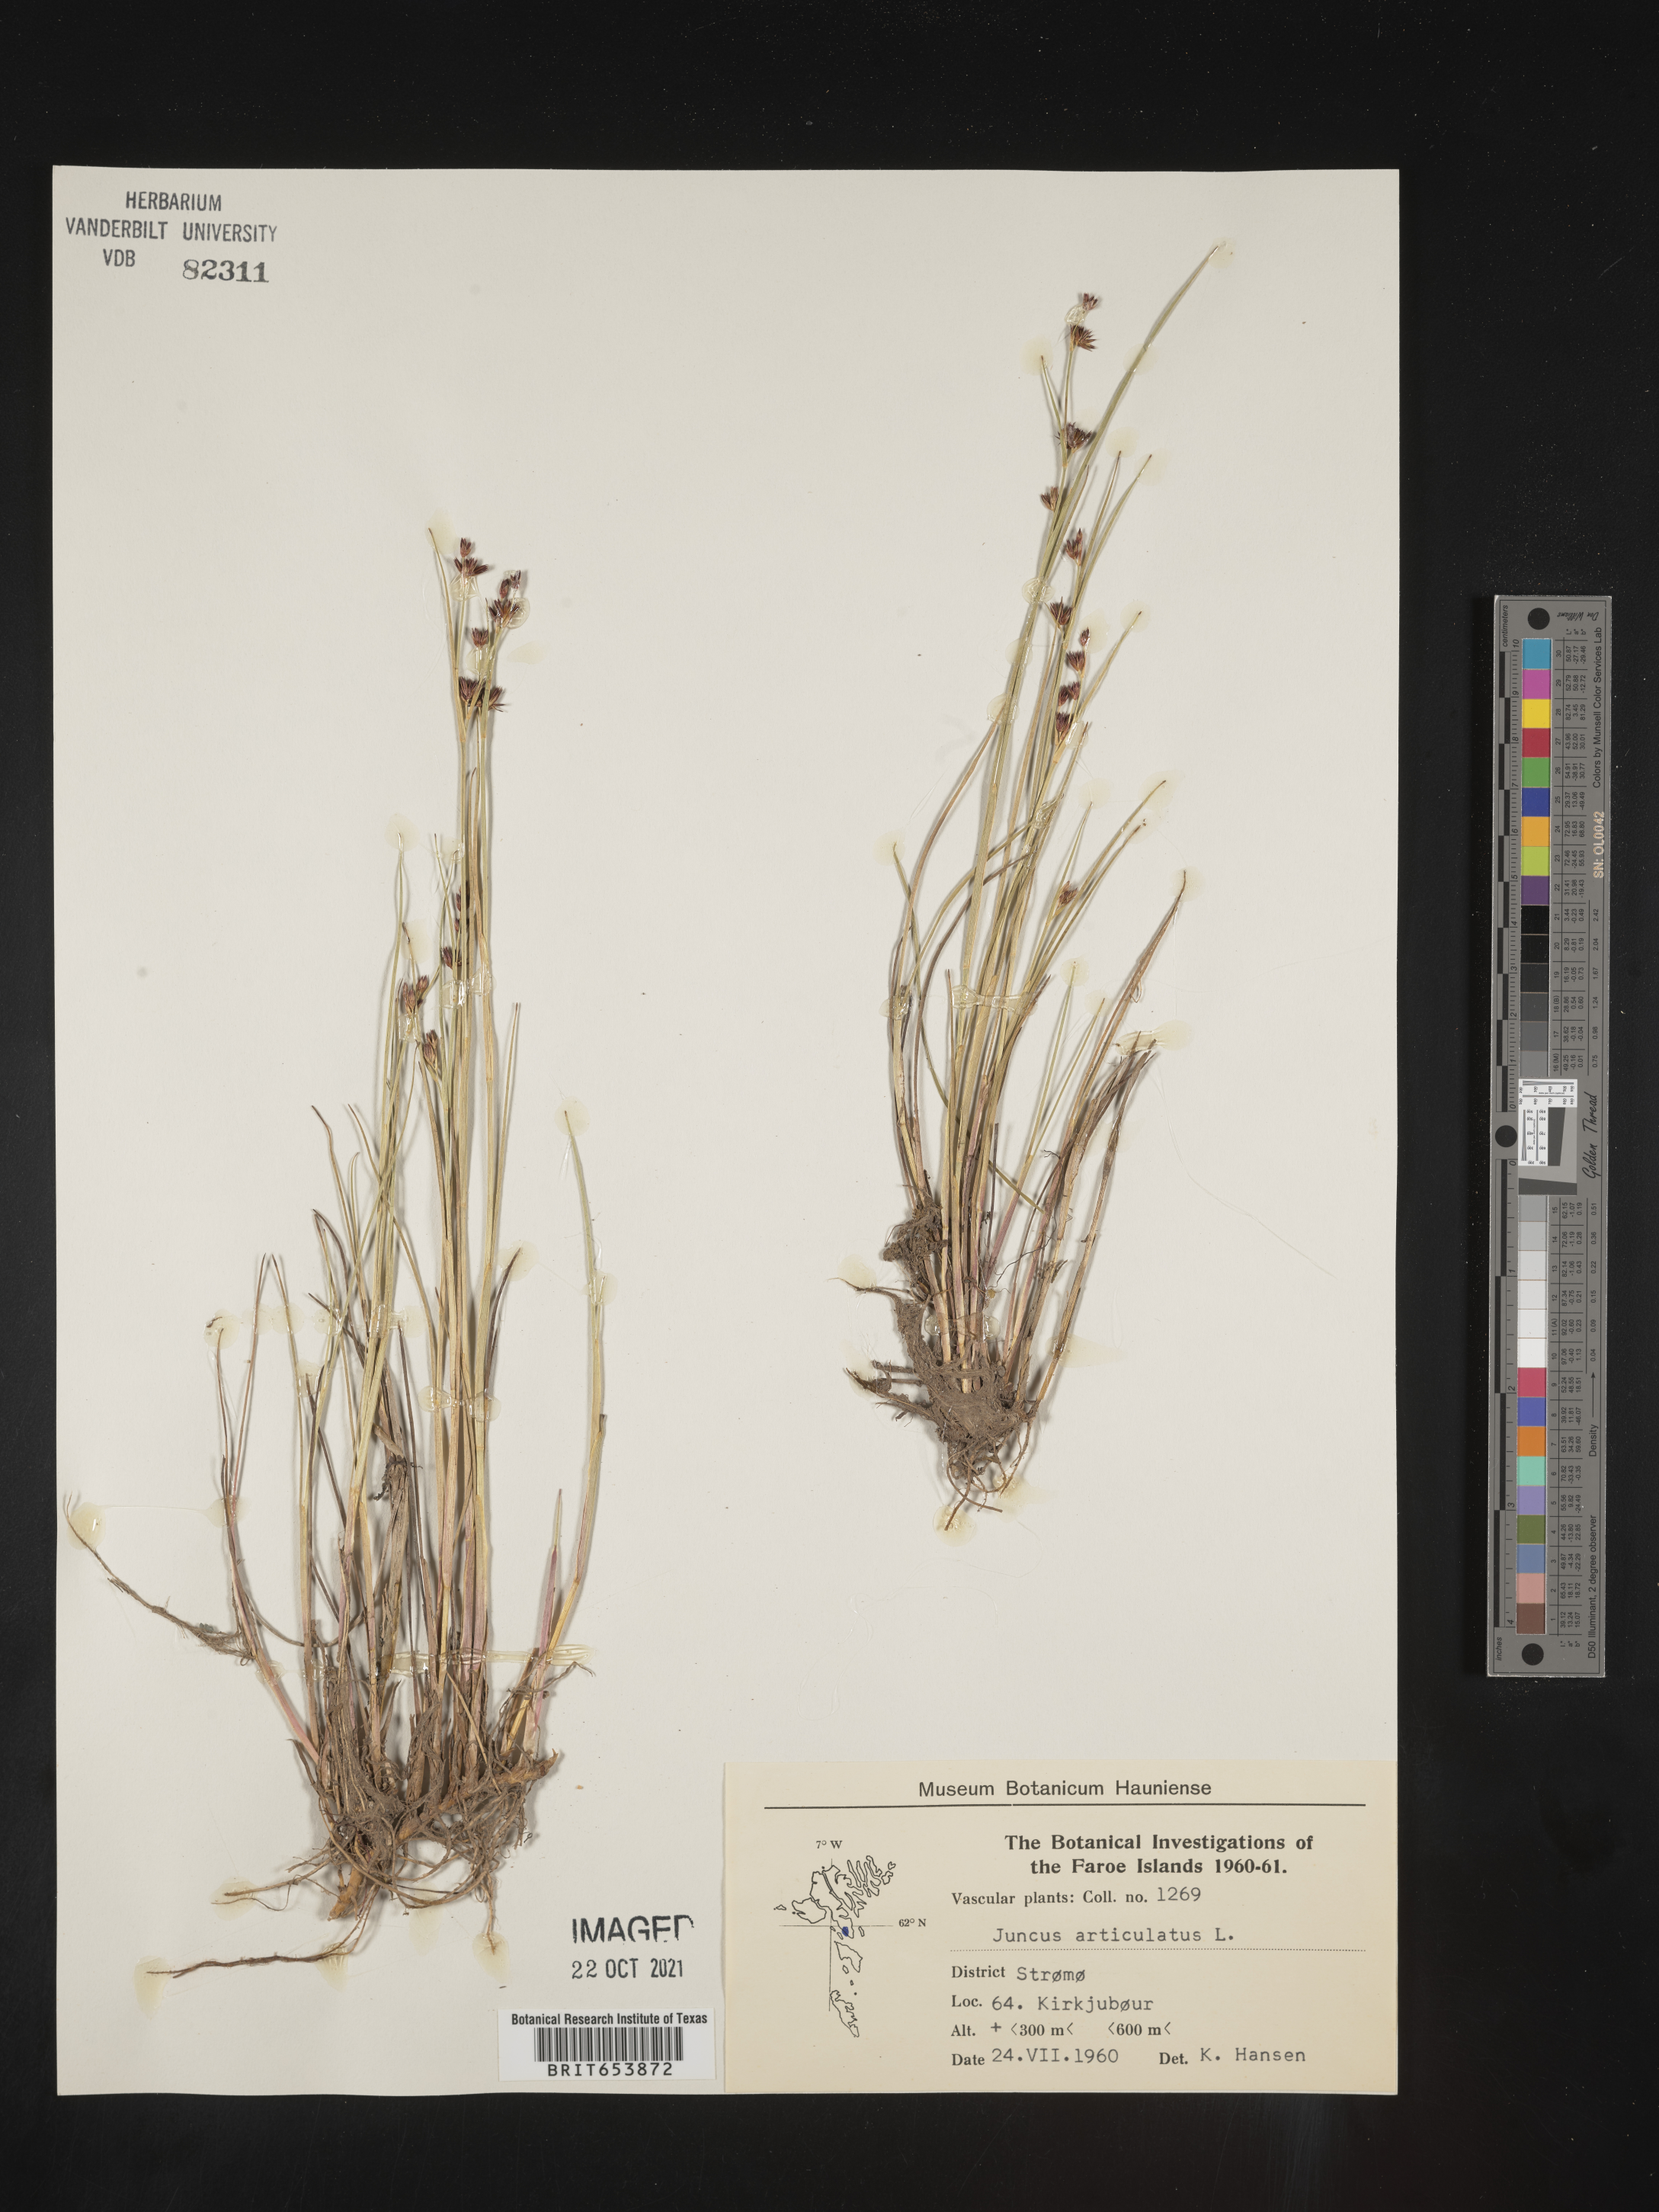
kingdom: Plantae
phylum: Tracheophyta
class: Liliopsida
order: Poales
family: Juncaceae
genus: Juncus
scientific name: Juncus articulatus
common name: Jointed rush
